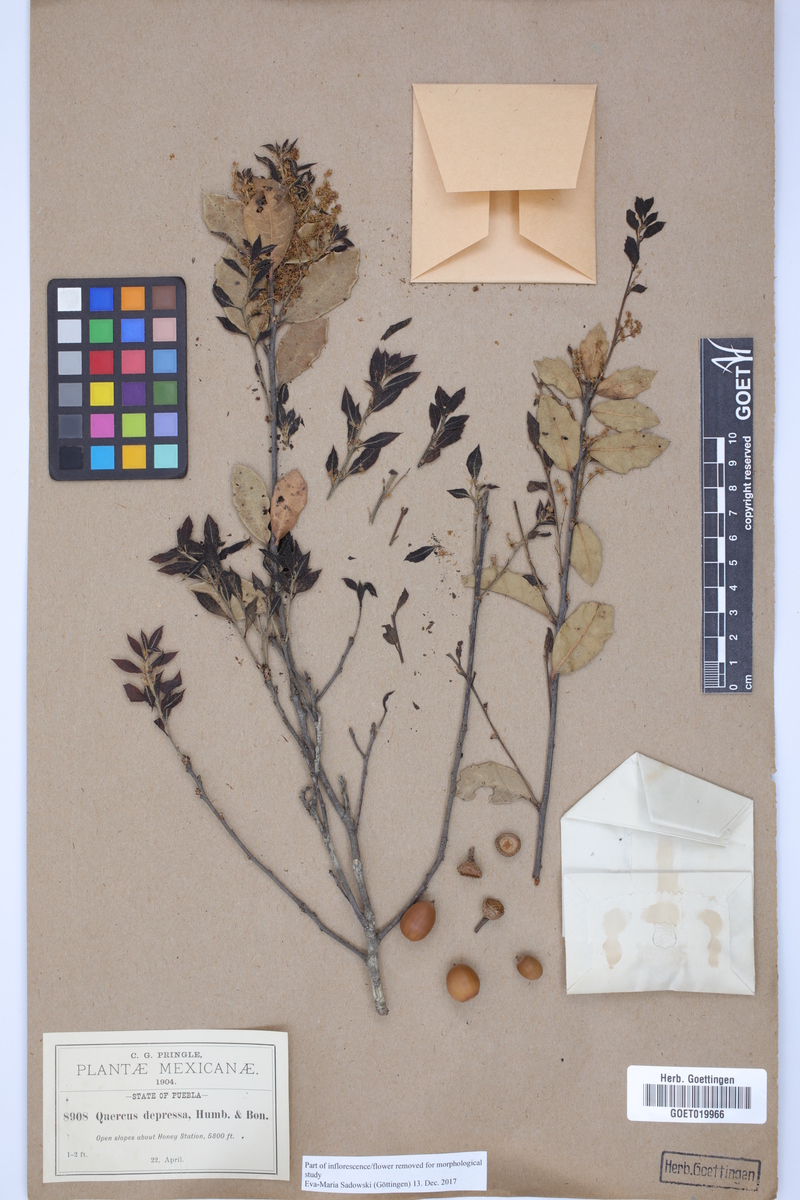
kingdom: Plantae
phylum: Tracheophyta
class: Magnoliopsida
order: Fagales
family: Fagaceae
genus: Quercus
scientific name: Quercus depressa
